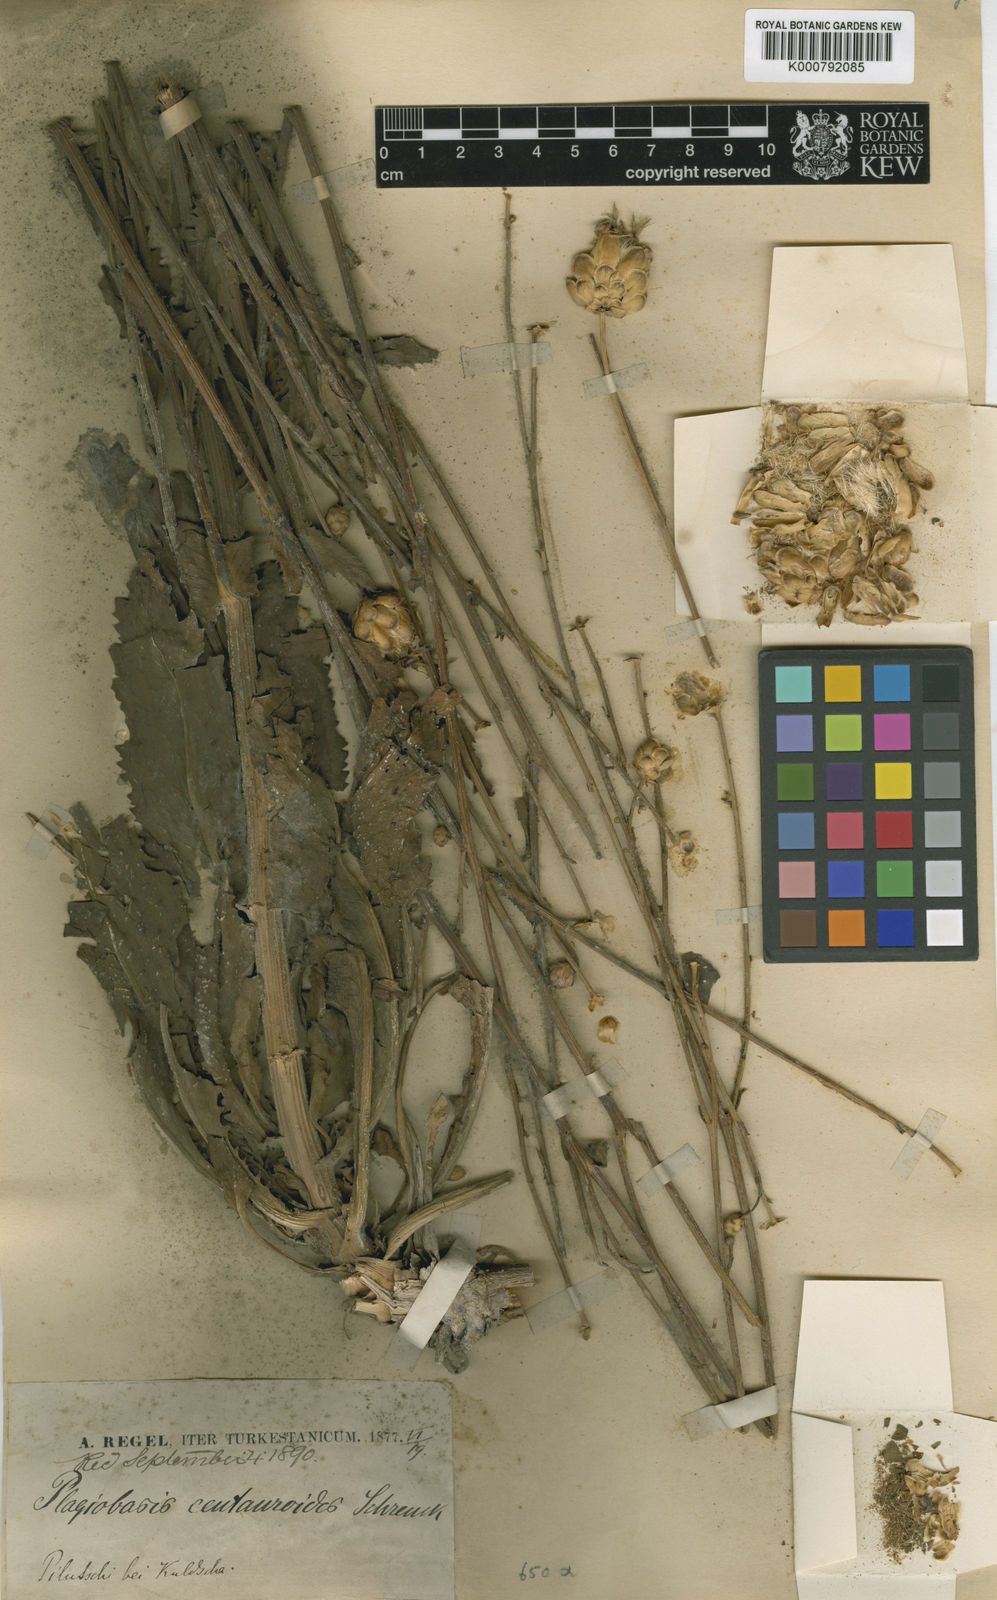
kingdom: Plantae
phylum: Tracheophyta
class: Magnoliopsida
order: Asterales
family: Asteraceae
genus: Plagiobasis
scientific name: Plagiobasis centauroides
